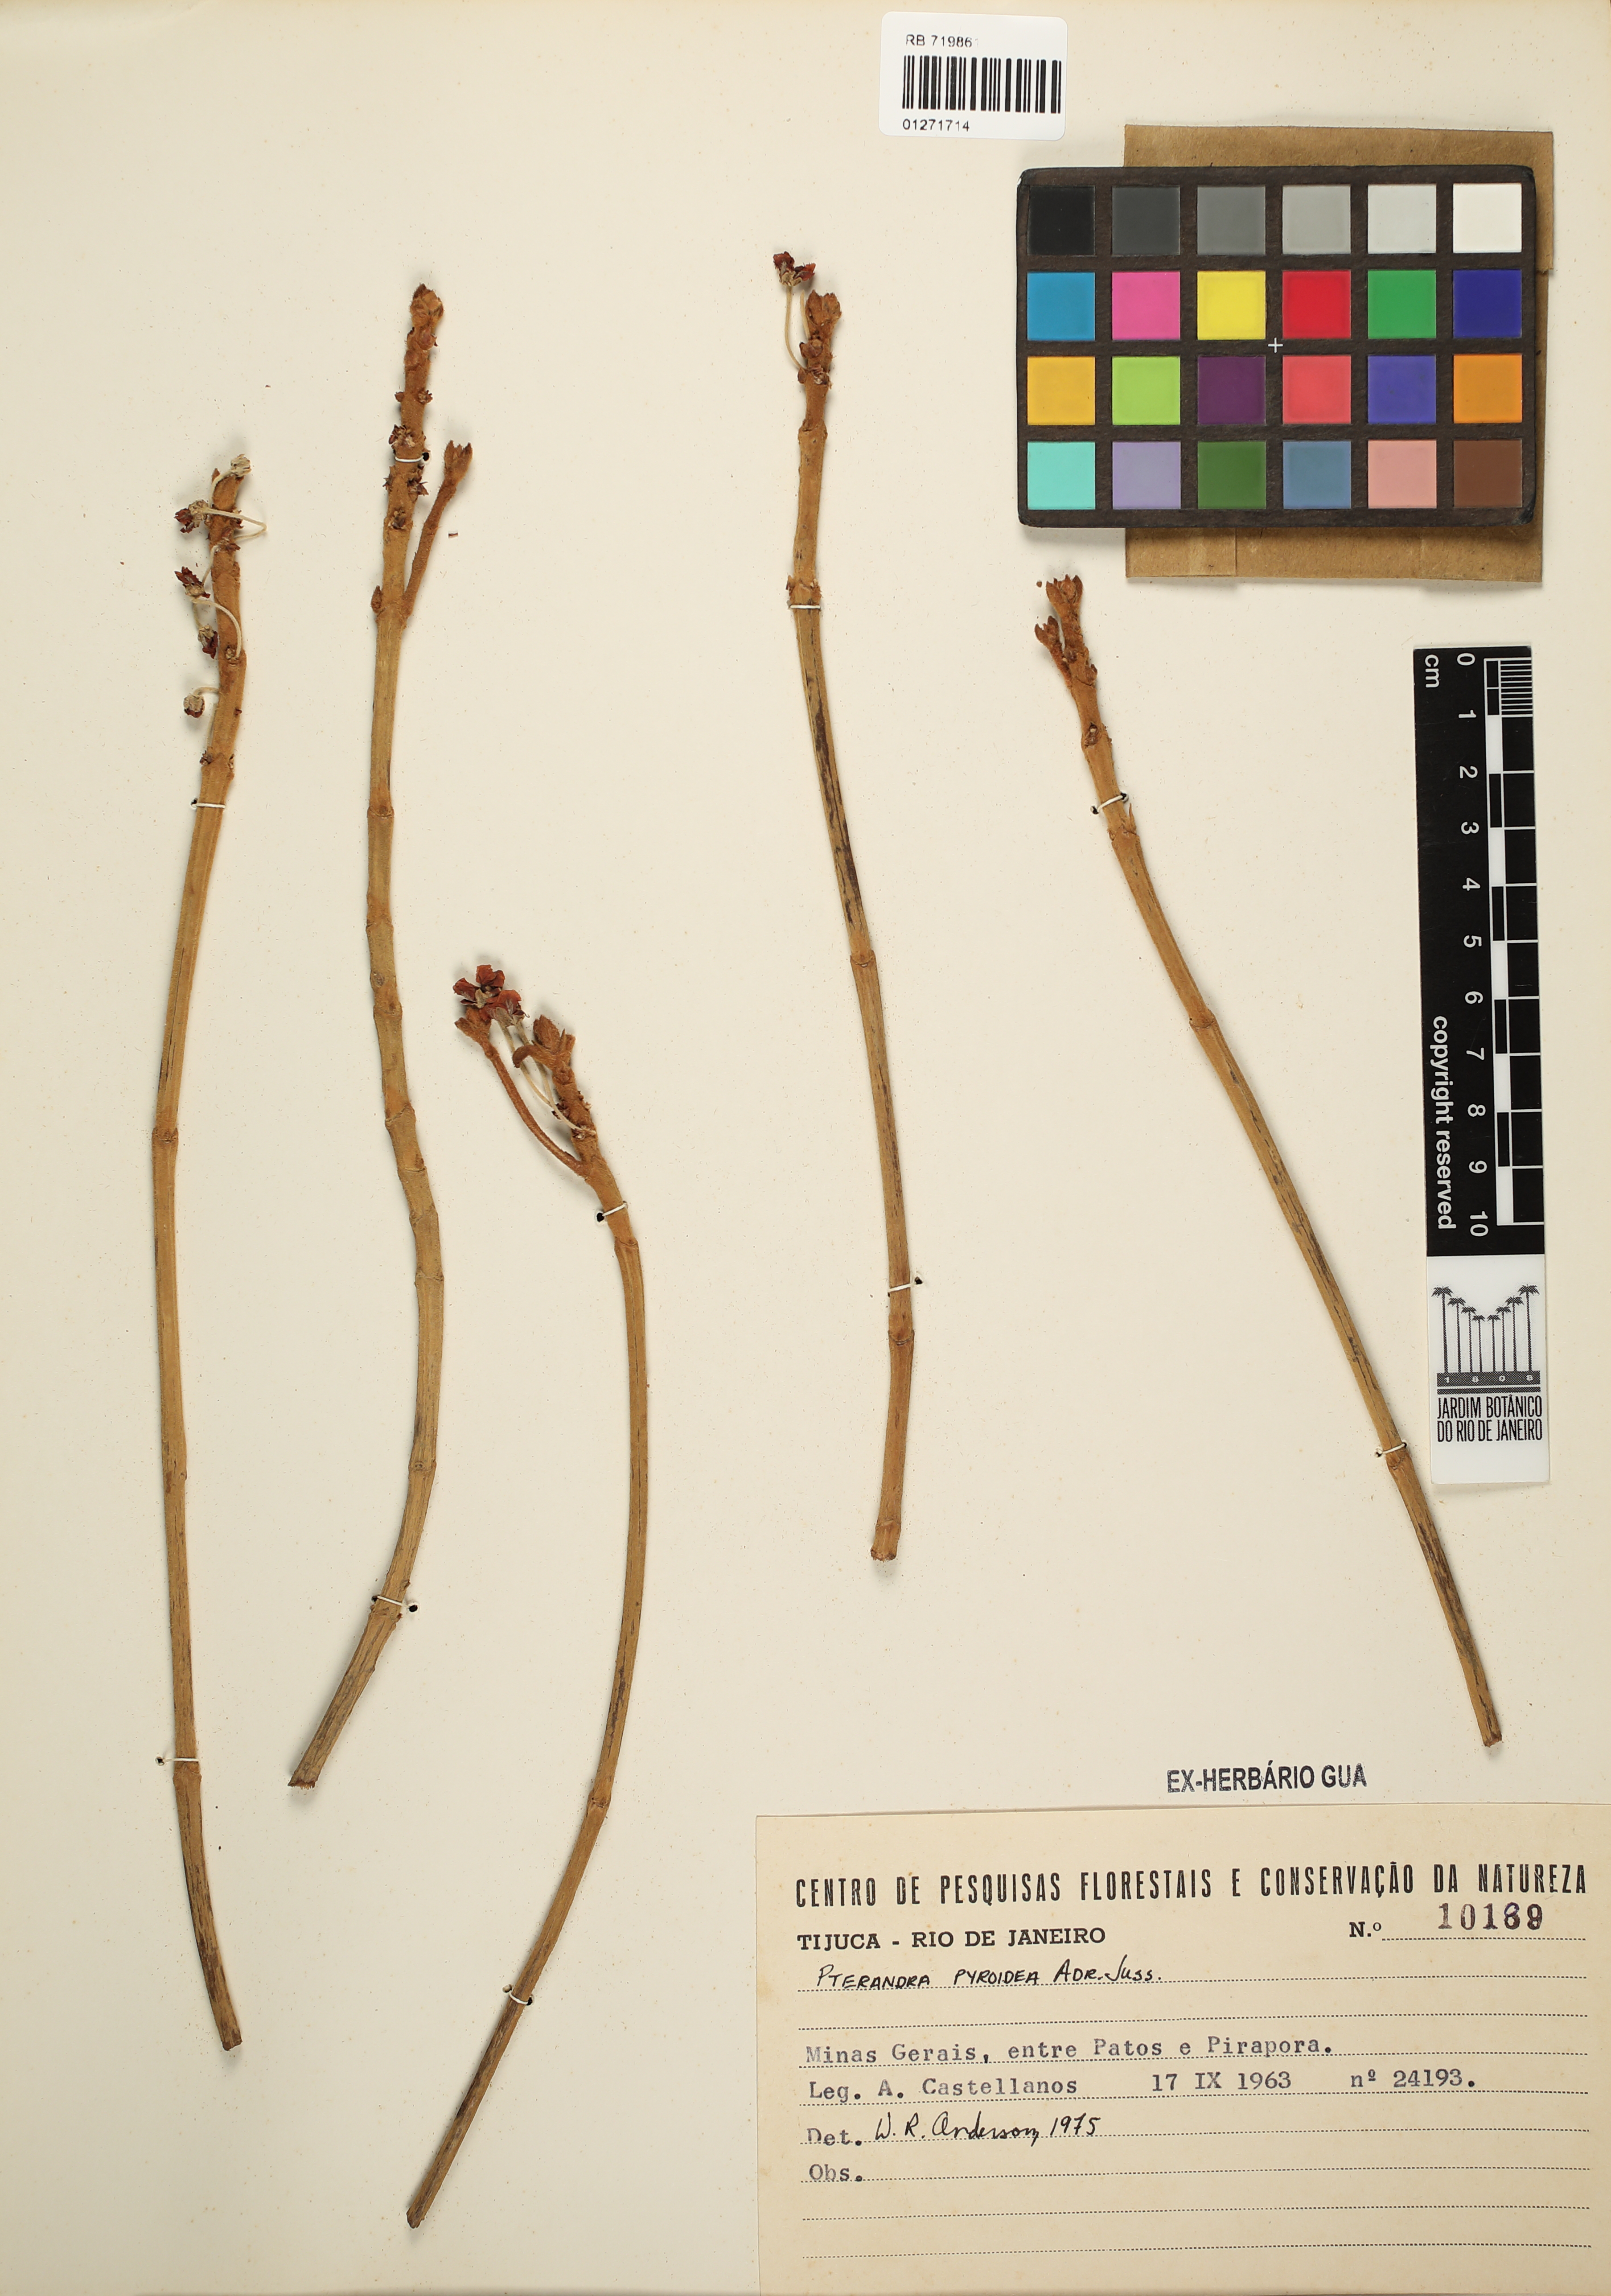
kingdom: Plantae
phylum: Tracheophyta
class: Magnoliopsida
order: Malpighiales
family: Malpighiaceae
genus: Pterandra
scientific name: Pterandra pyroidea
